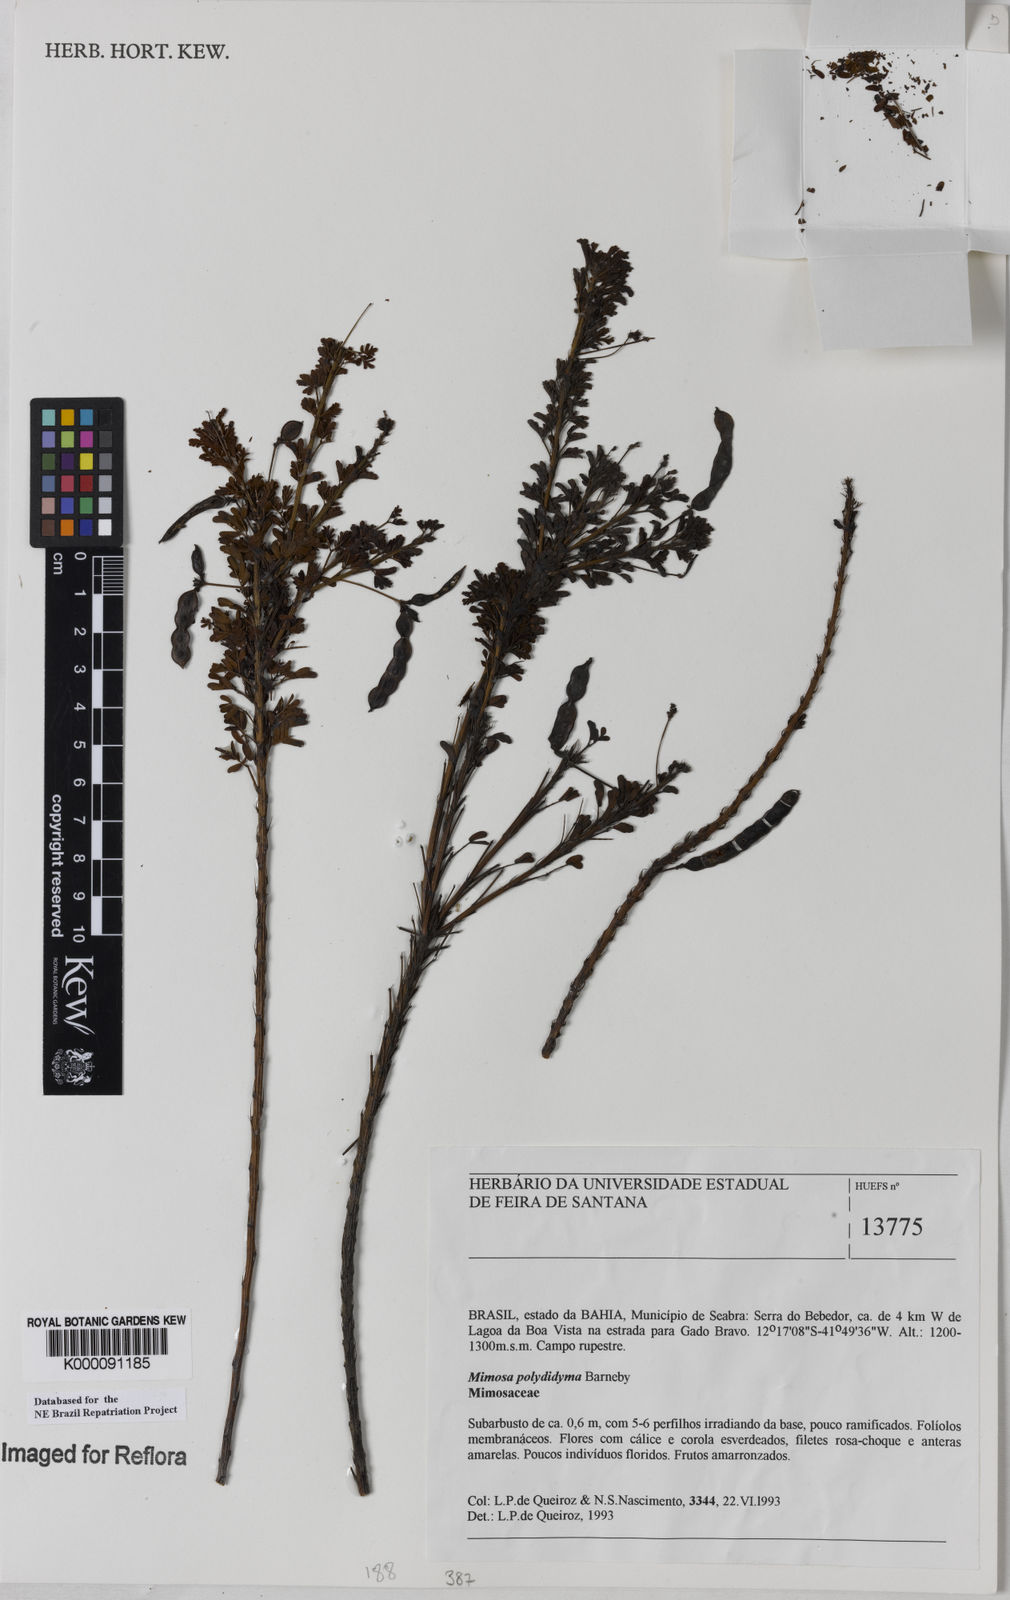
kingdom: Plantae
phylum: Tracheophyta
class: Magnoliopsida
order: Fabales
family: Fabaceae
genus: Mimosa
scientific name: Mimosa polydidyma
